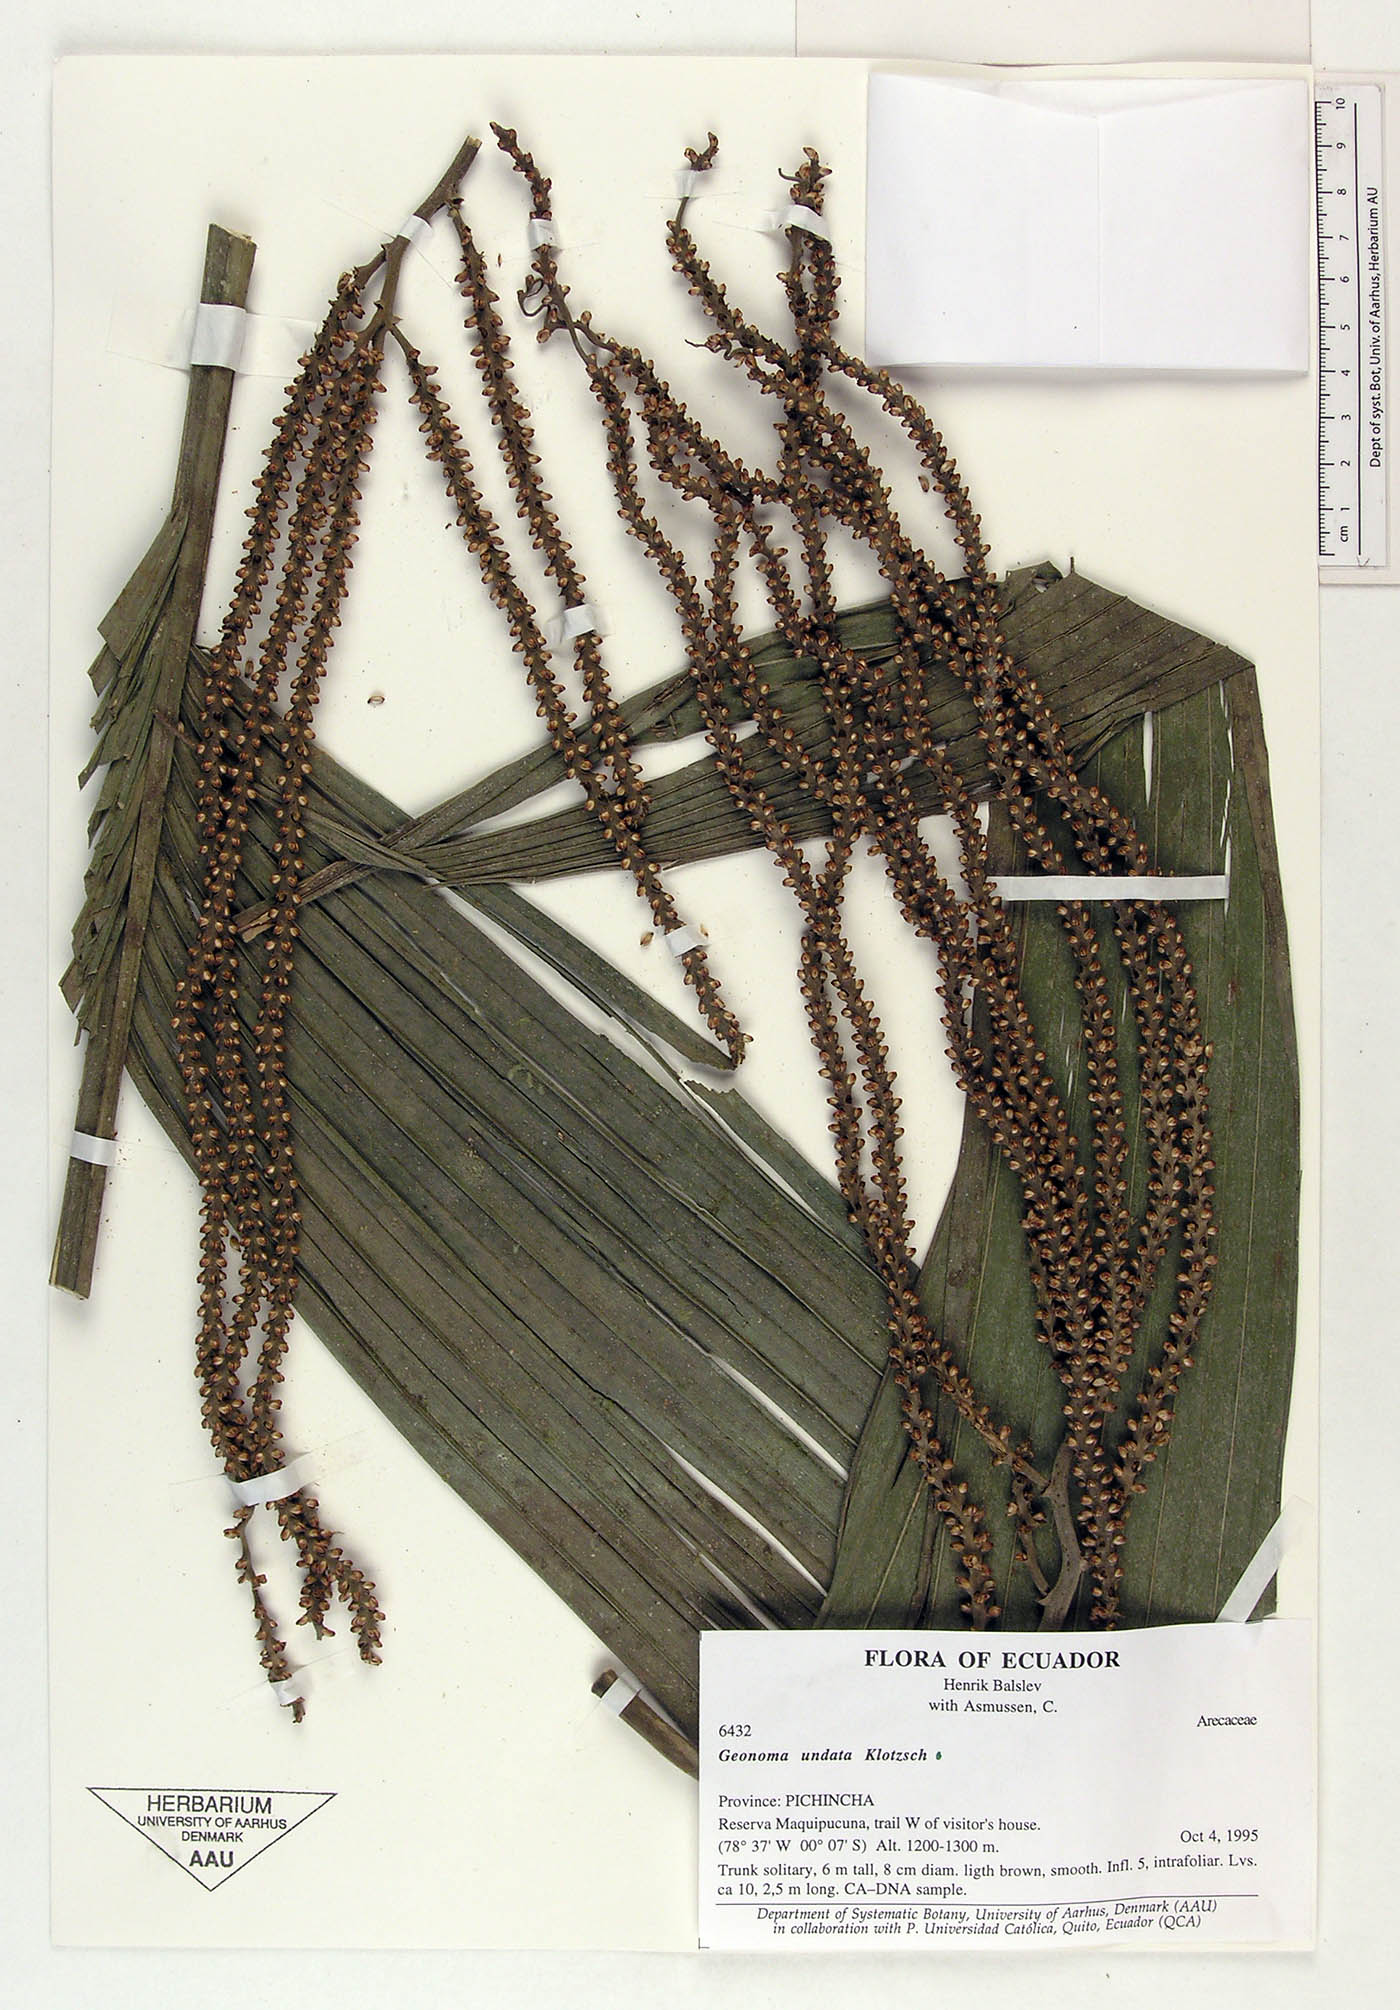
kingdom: Plantae
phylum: Tracheophyta
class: Liliopsida
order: Arecales
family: Arecaceae
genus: Geonoma
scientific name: Geonoma undata
